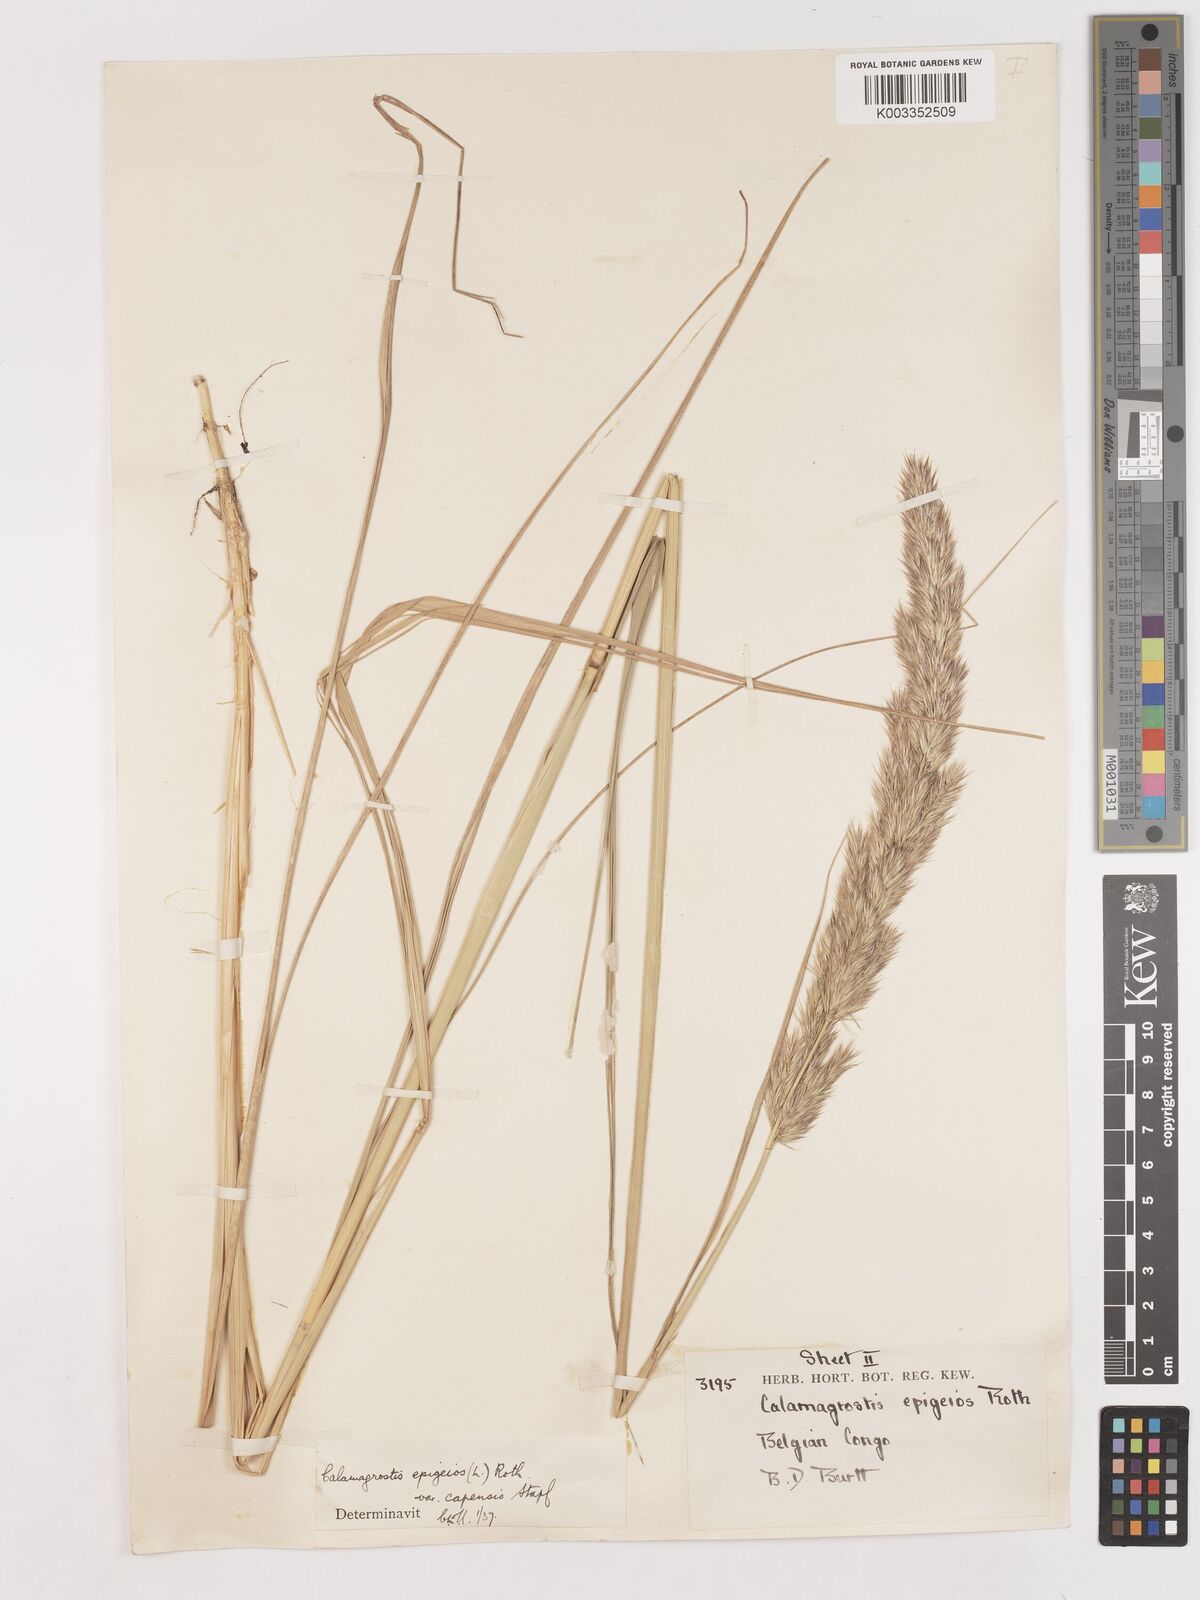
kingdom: Plantae
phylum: Tracheophyta
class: Liliopsida
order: Poales
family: Poaceae
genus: Calamagrostis
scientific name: Calamagrostis epigejos
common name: Wood small-reed
